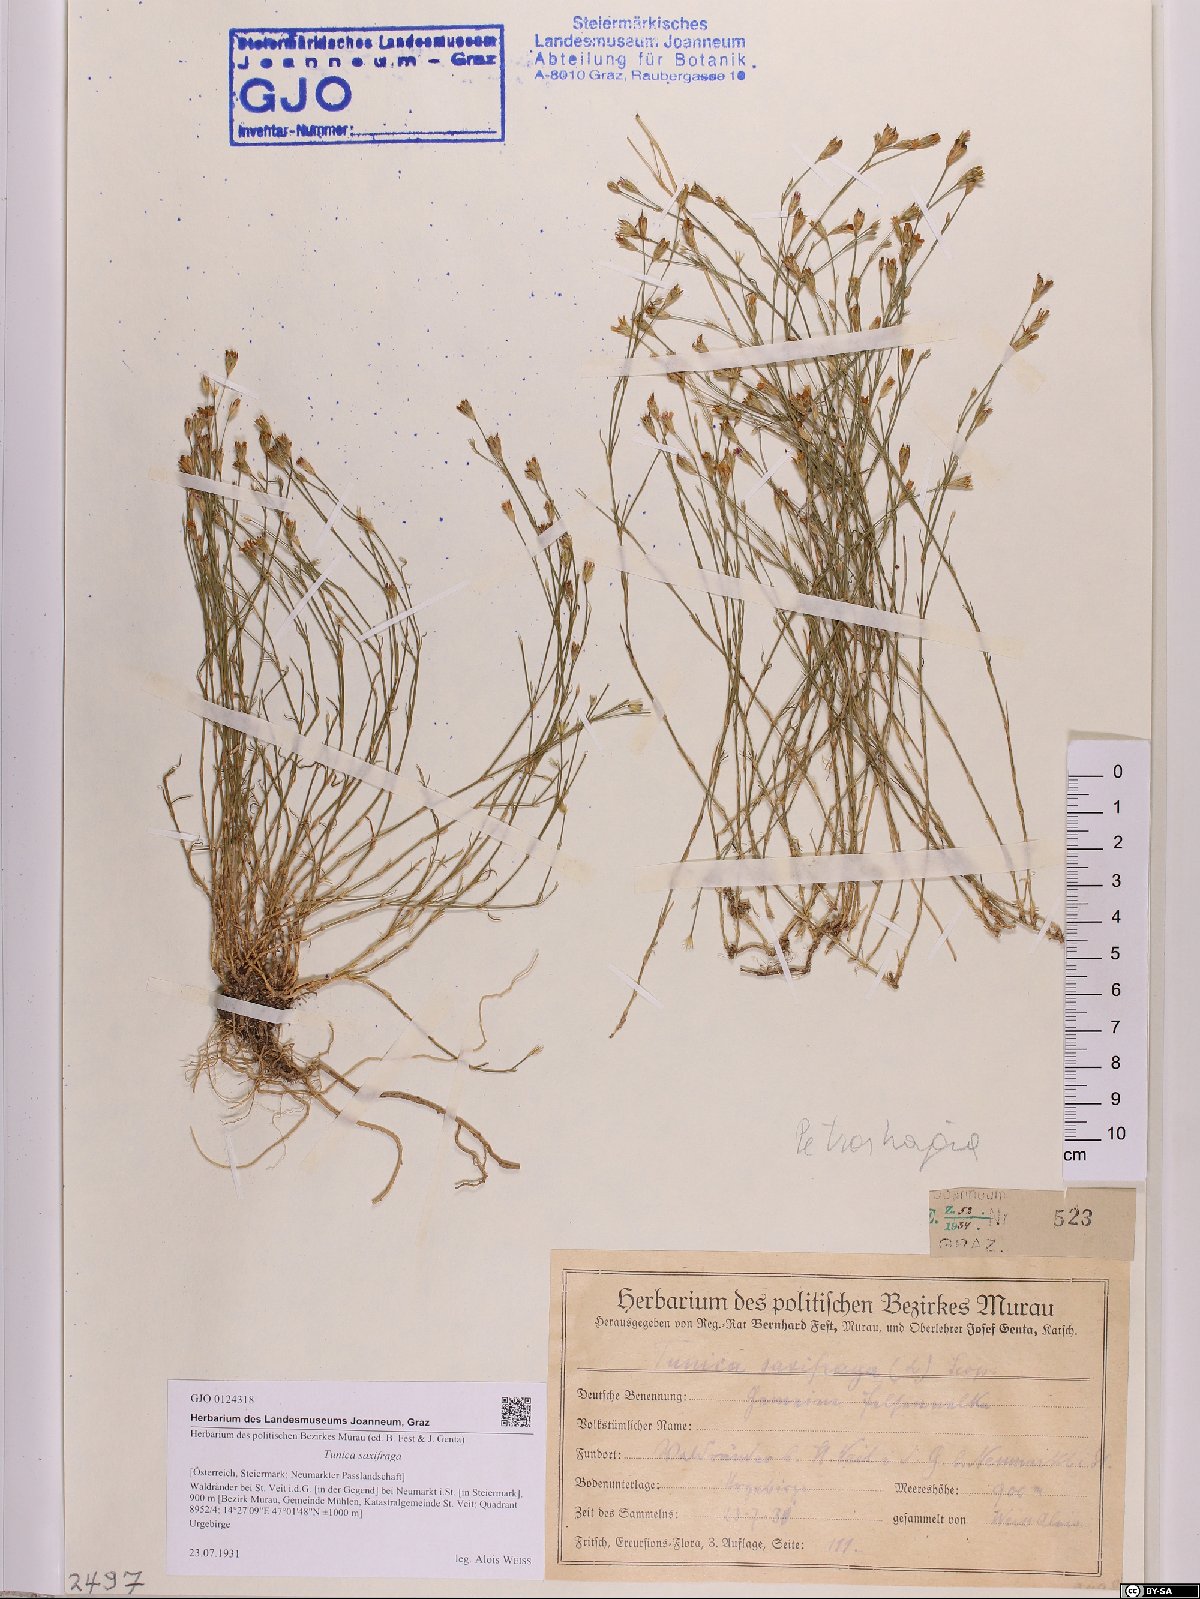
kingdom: Plantae
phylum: Tracheophyta
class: Magnoliopsida
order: Caryophyllales
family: Caryophyllaceae
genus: Petrorhagia
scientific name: Petrorhagia saxifraga
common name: Tunicflower
